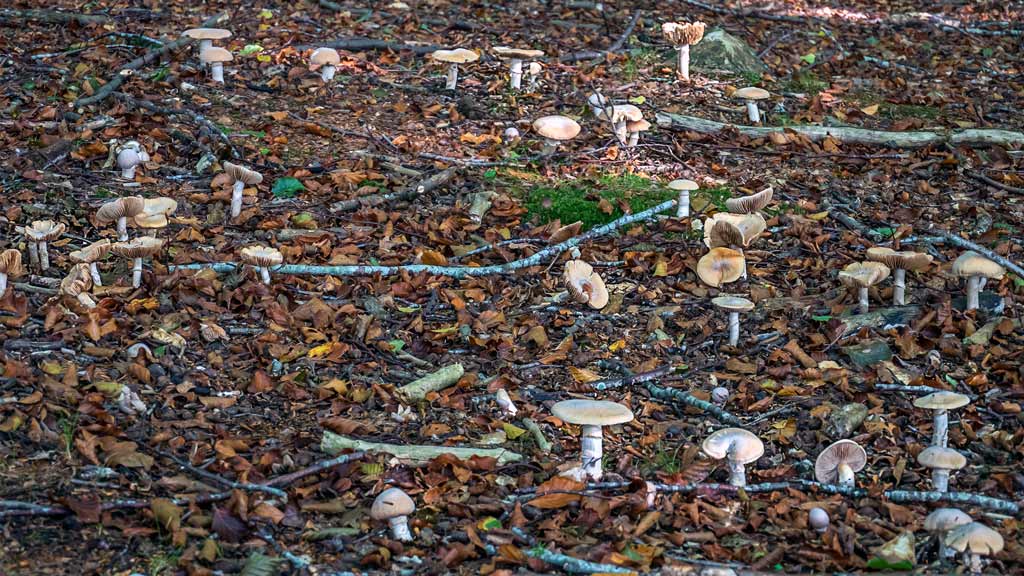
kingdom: Fungi
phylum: Basidiomycota
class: Agaricomycetes
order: Agaricales
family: Cortinariaceae
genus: Cortinarius
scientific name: Cortinarius caperatus
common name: klidhat
